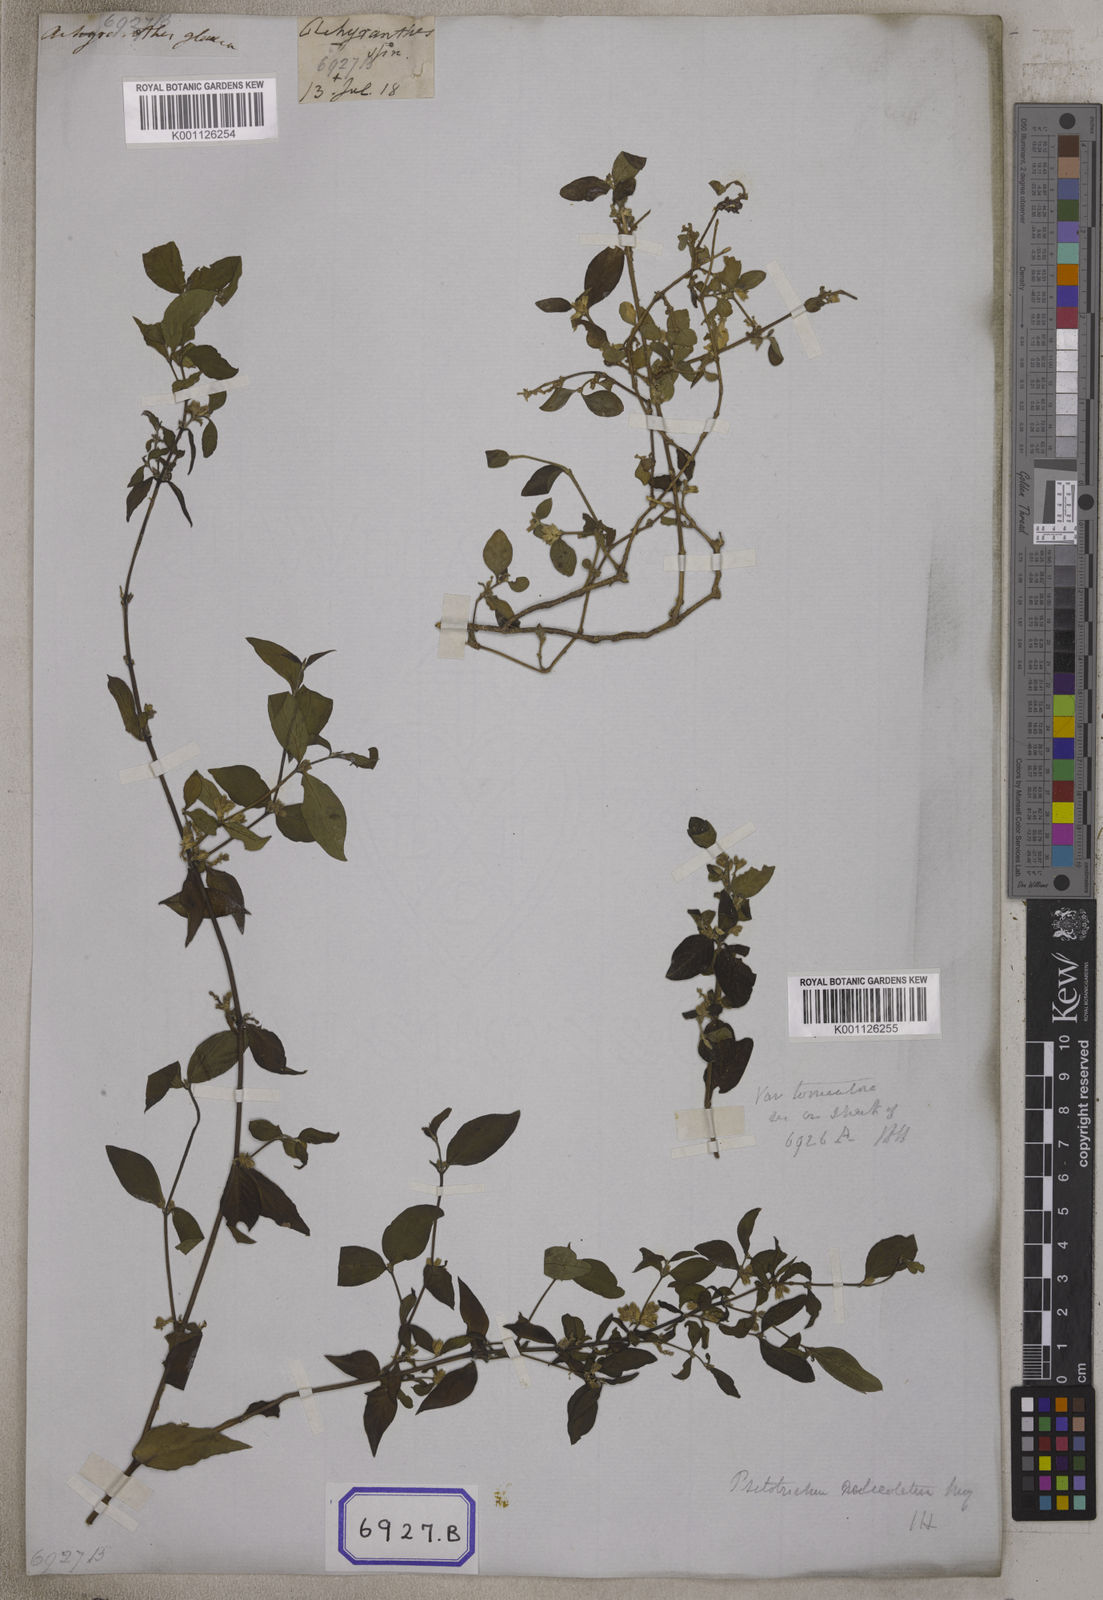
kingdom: Plantae
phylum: Tracheophyta
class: Magnoliopsida
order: Caryophyllales
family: Amaranthaceae
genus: Achyranthes
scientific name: Achyranthes
